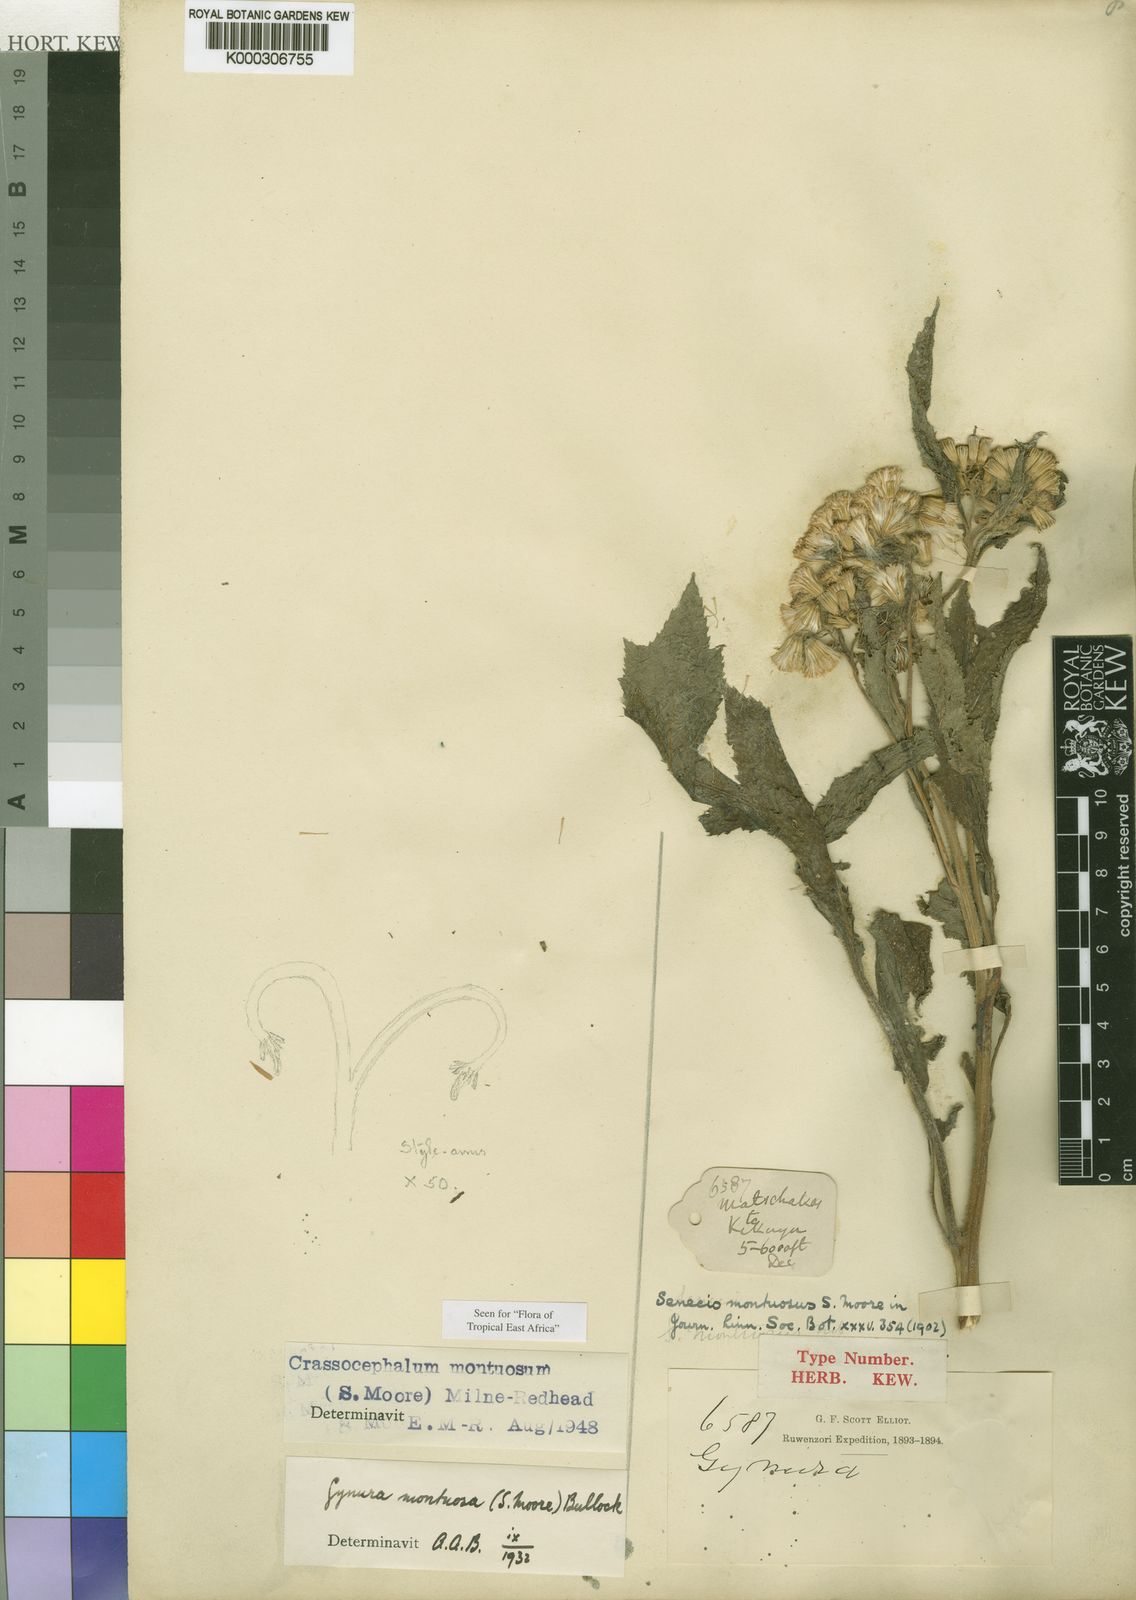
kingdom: Plantae
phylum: Tracheophyta
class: Magnoliopsida
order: Asterales
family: Asteraceae
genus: Crassocephalum
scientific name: Crassocephalum montuosum
